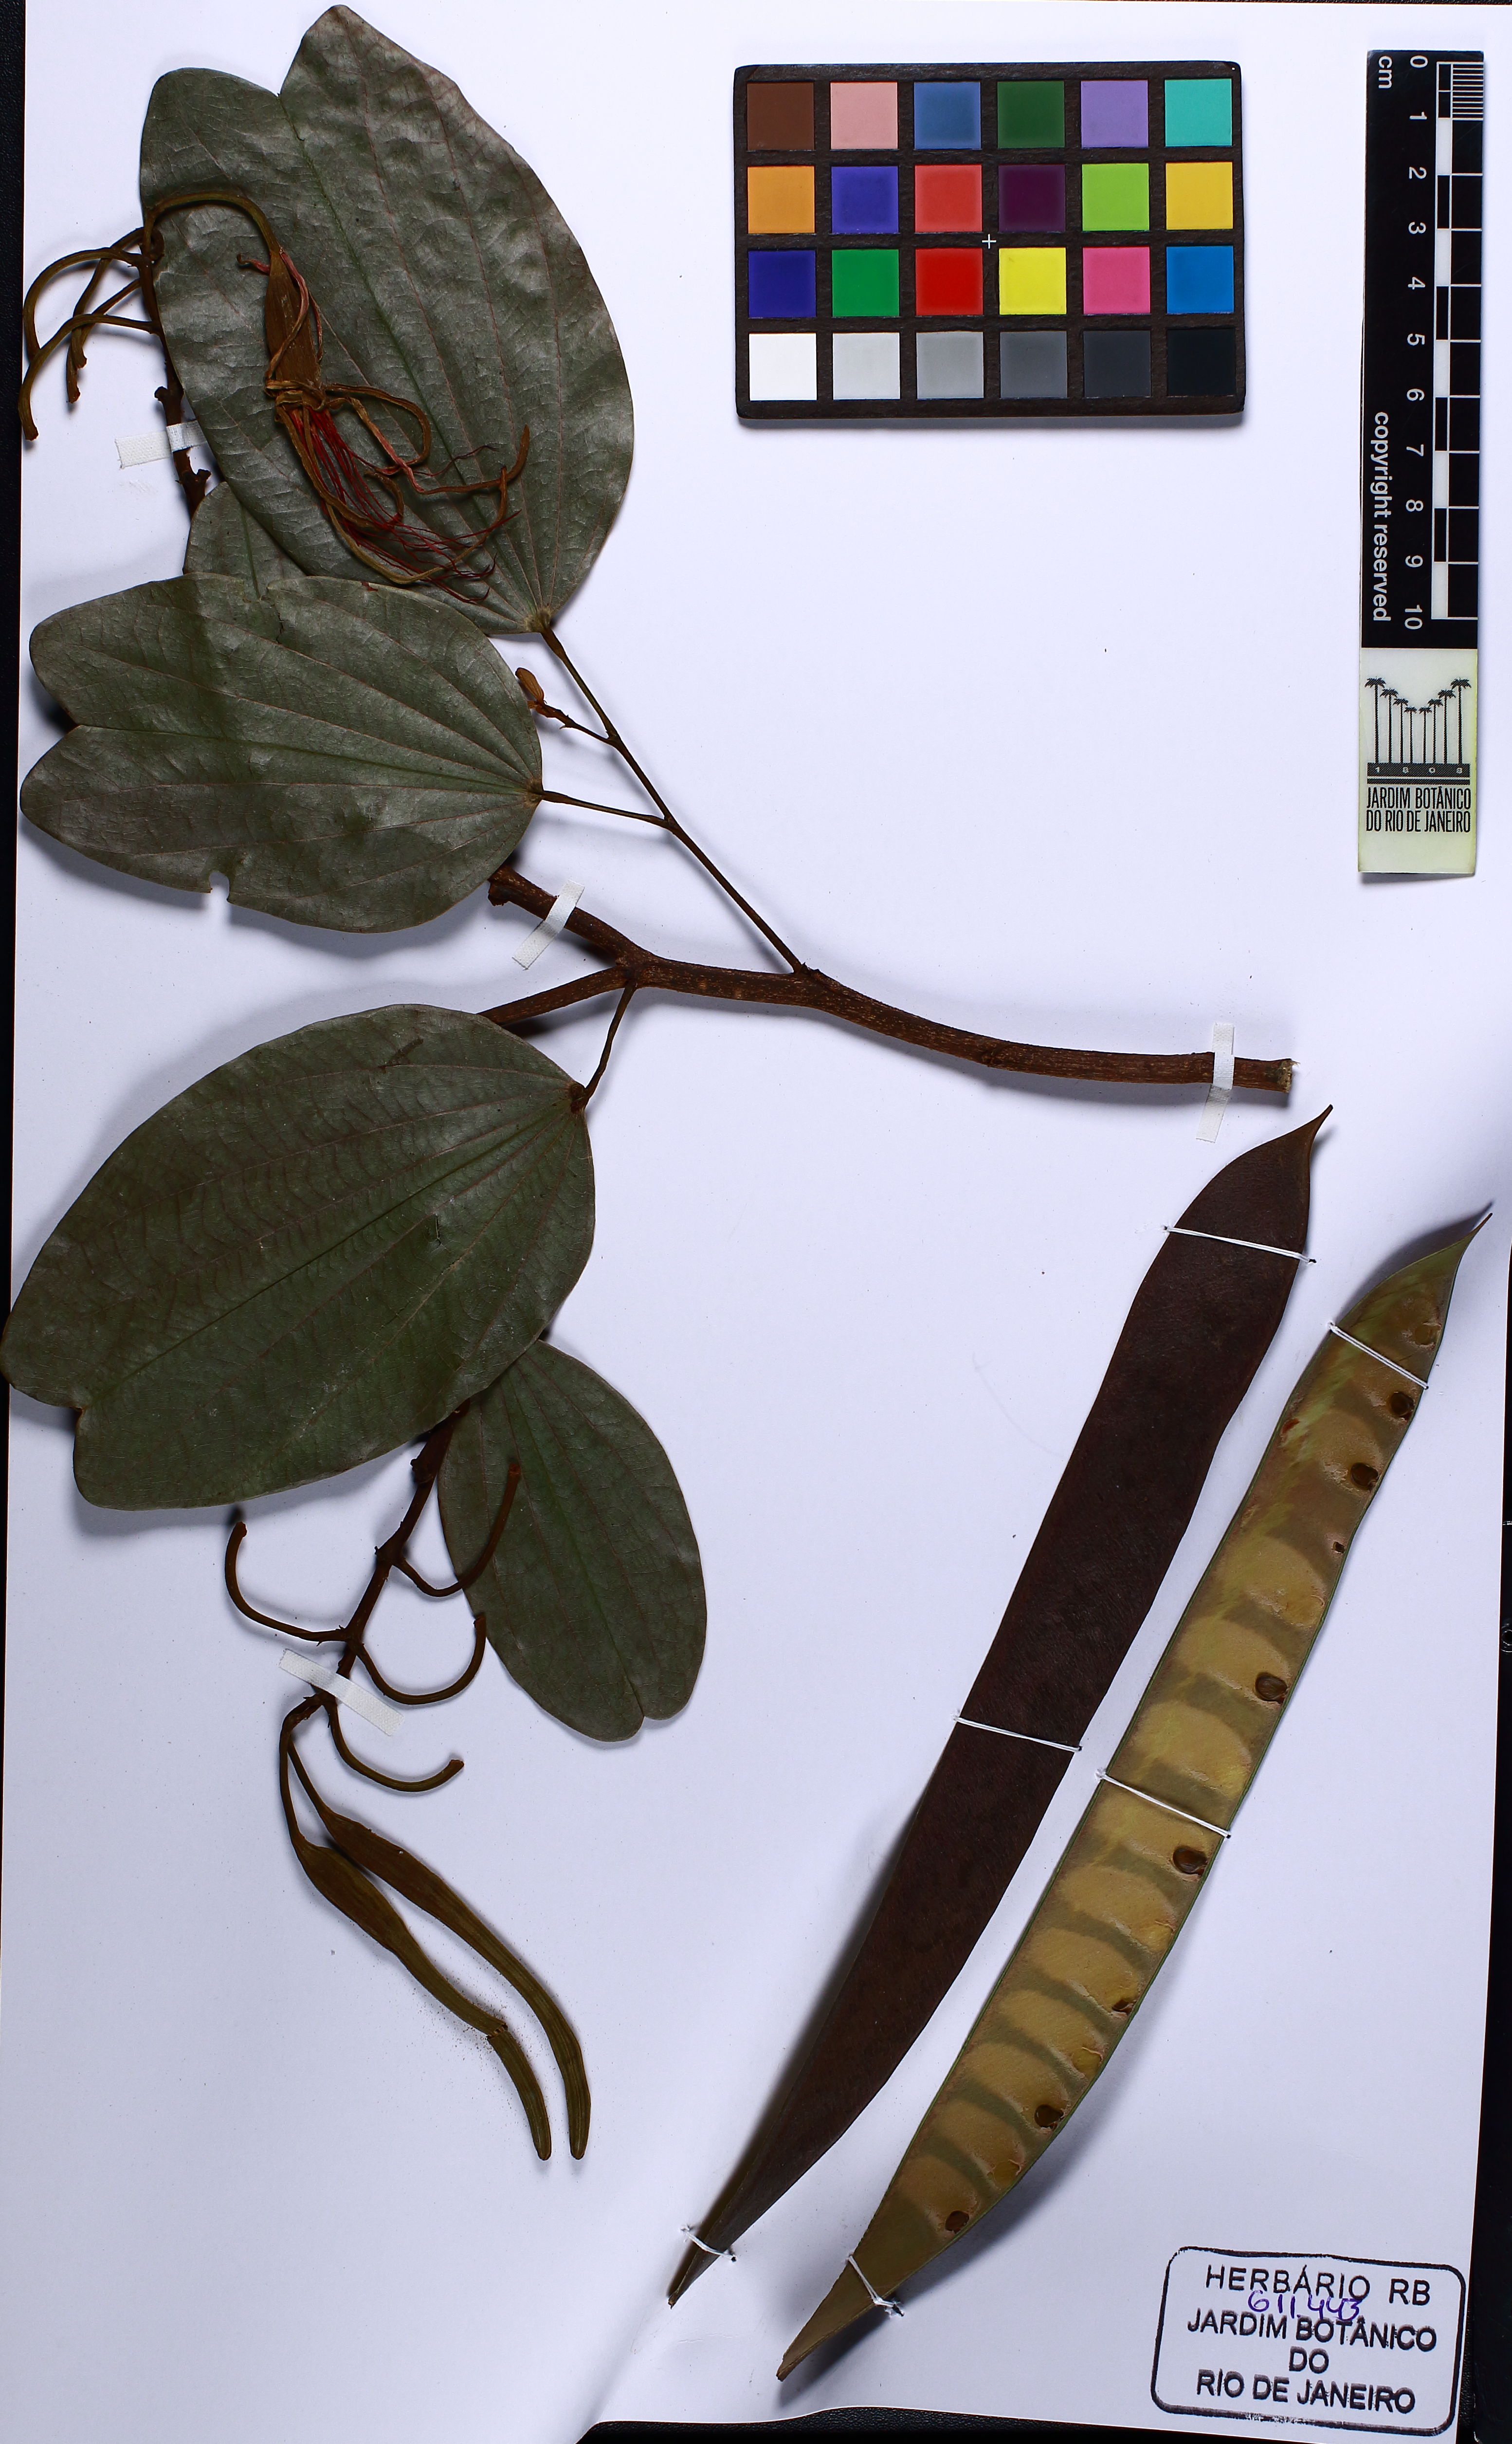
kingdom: Plantae
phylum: Tracheophyta
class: Magnoliopsida
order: Fabales
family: Fabaceae
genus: Bauhinia
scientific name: Bauhinia longifolia
